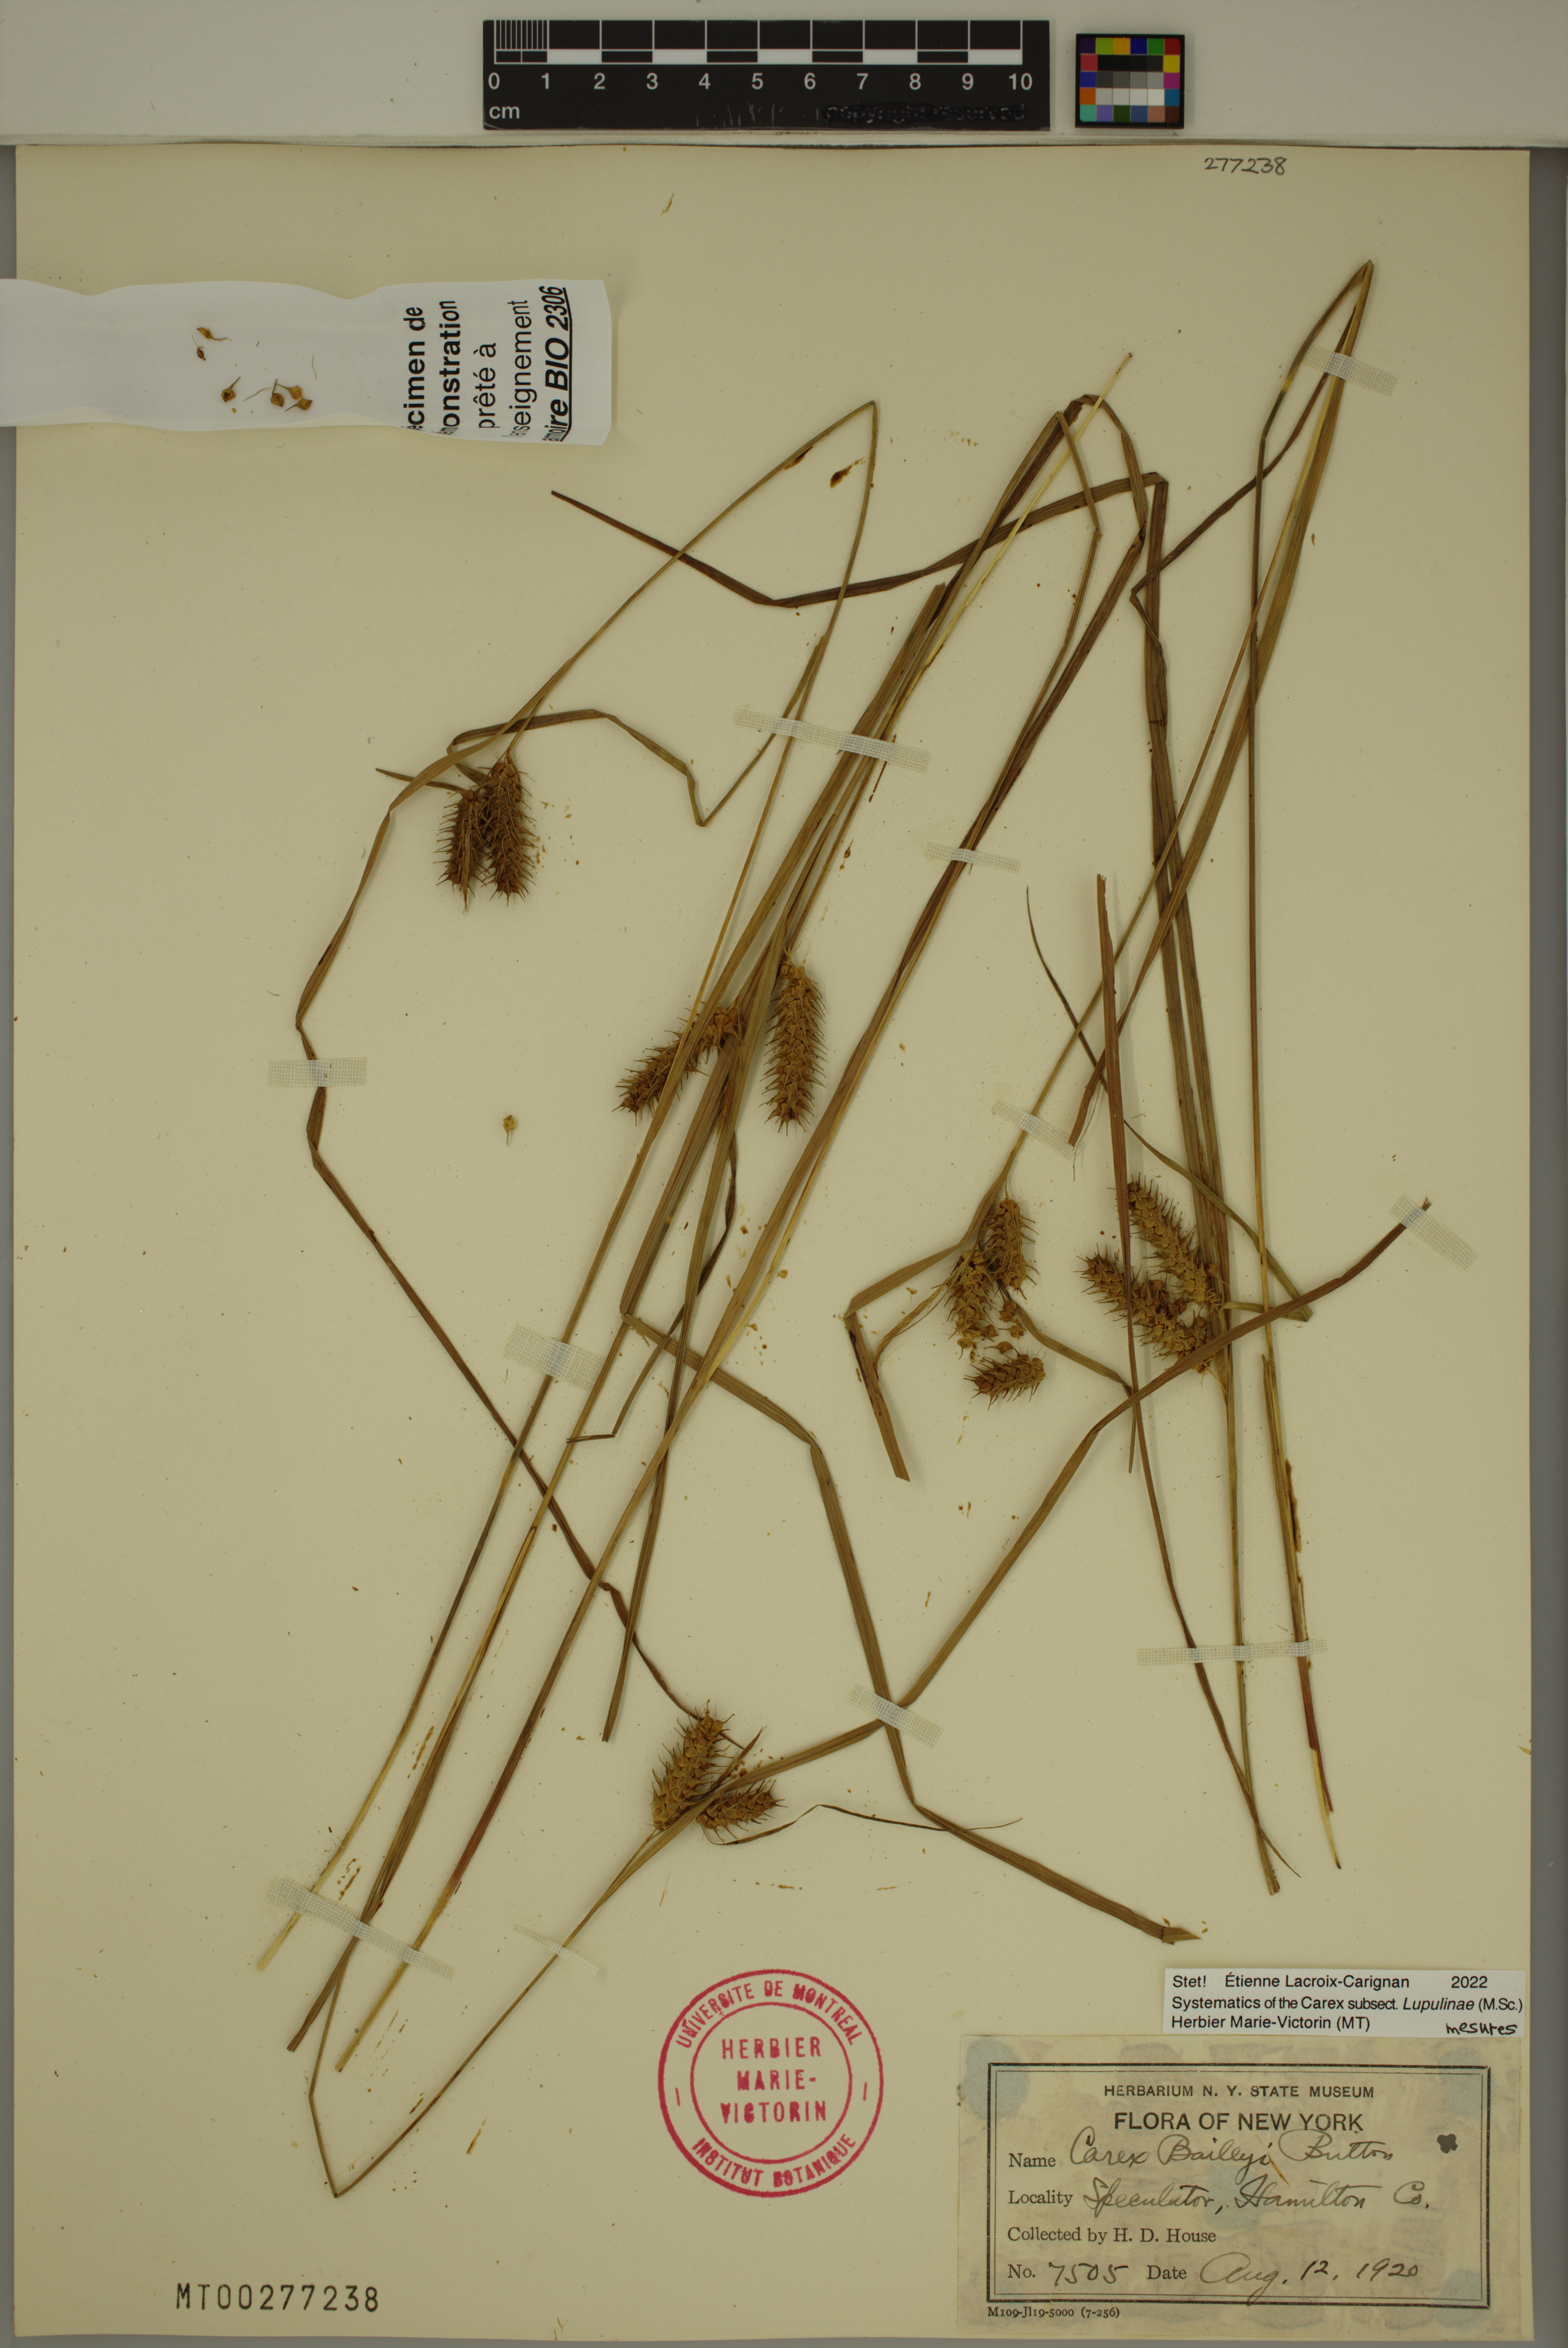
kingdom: Plantae
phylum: Tracheophyta
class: Liliopsida
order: Poales
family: Cyperaceae
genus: Carex
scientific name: Carex baileyi
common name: Bailey's sedge
